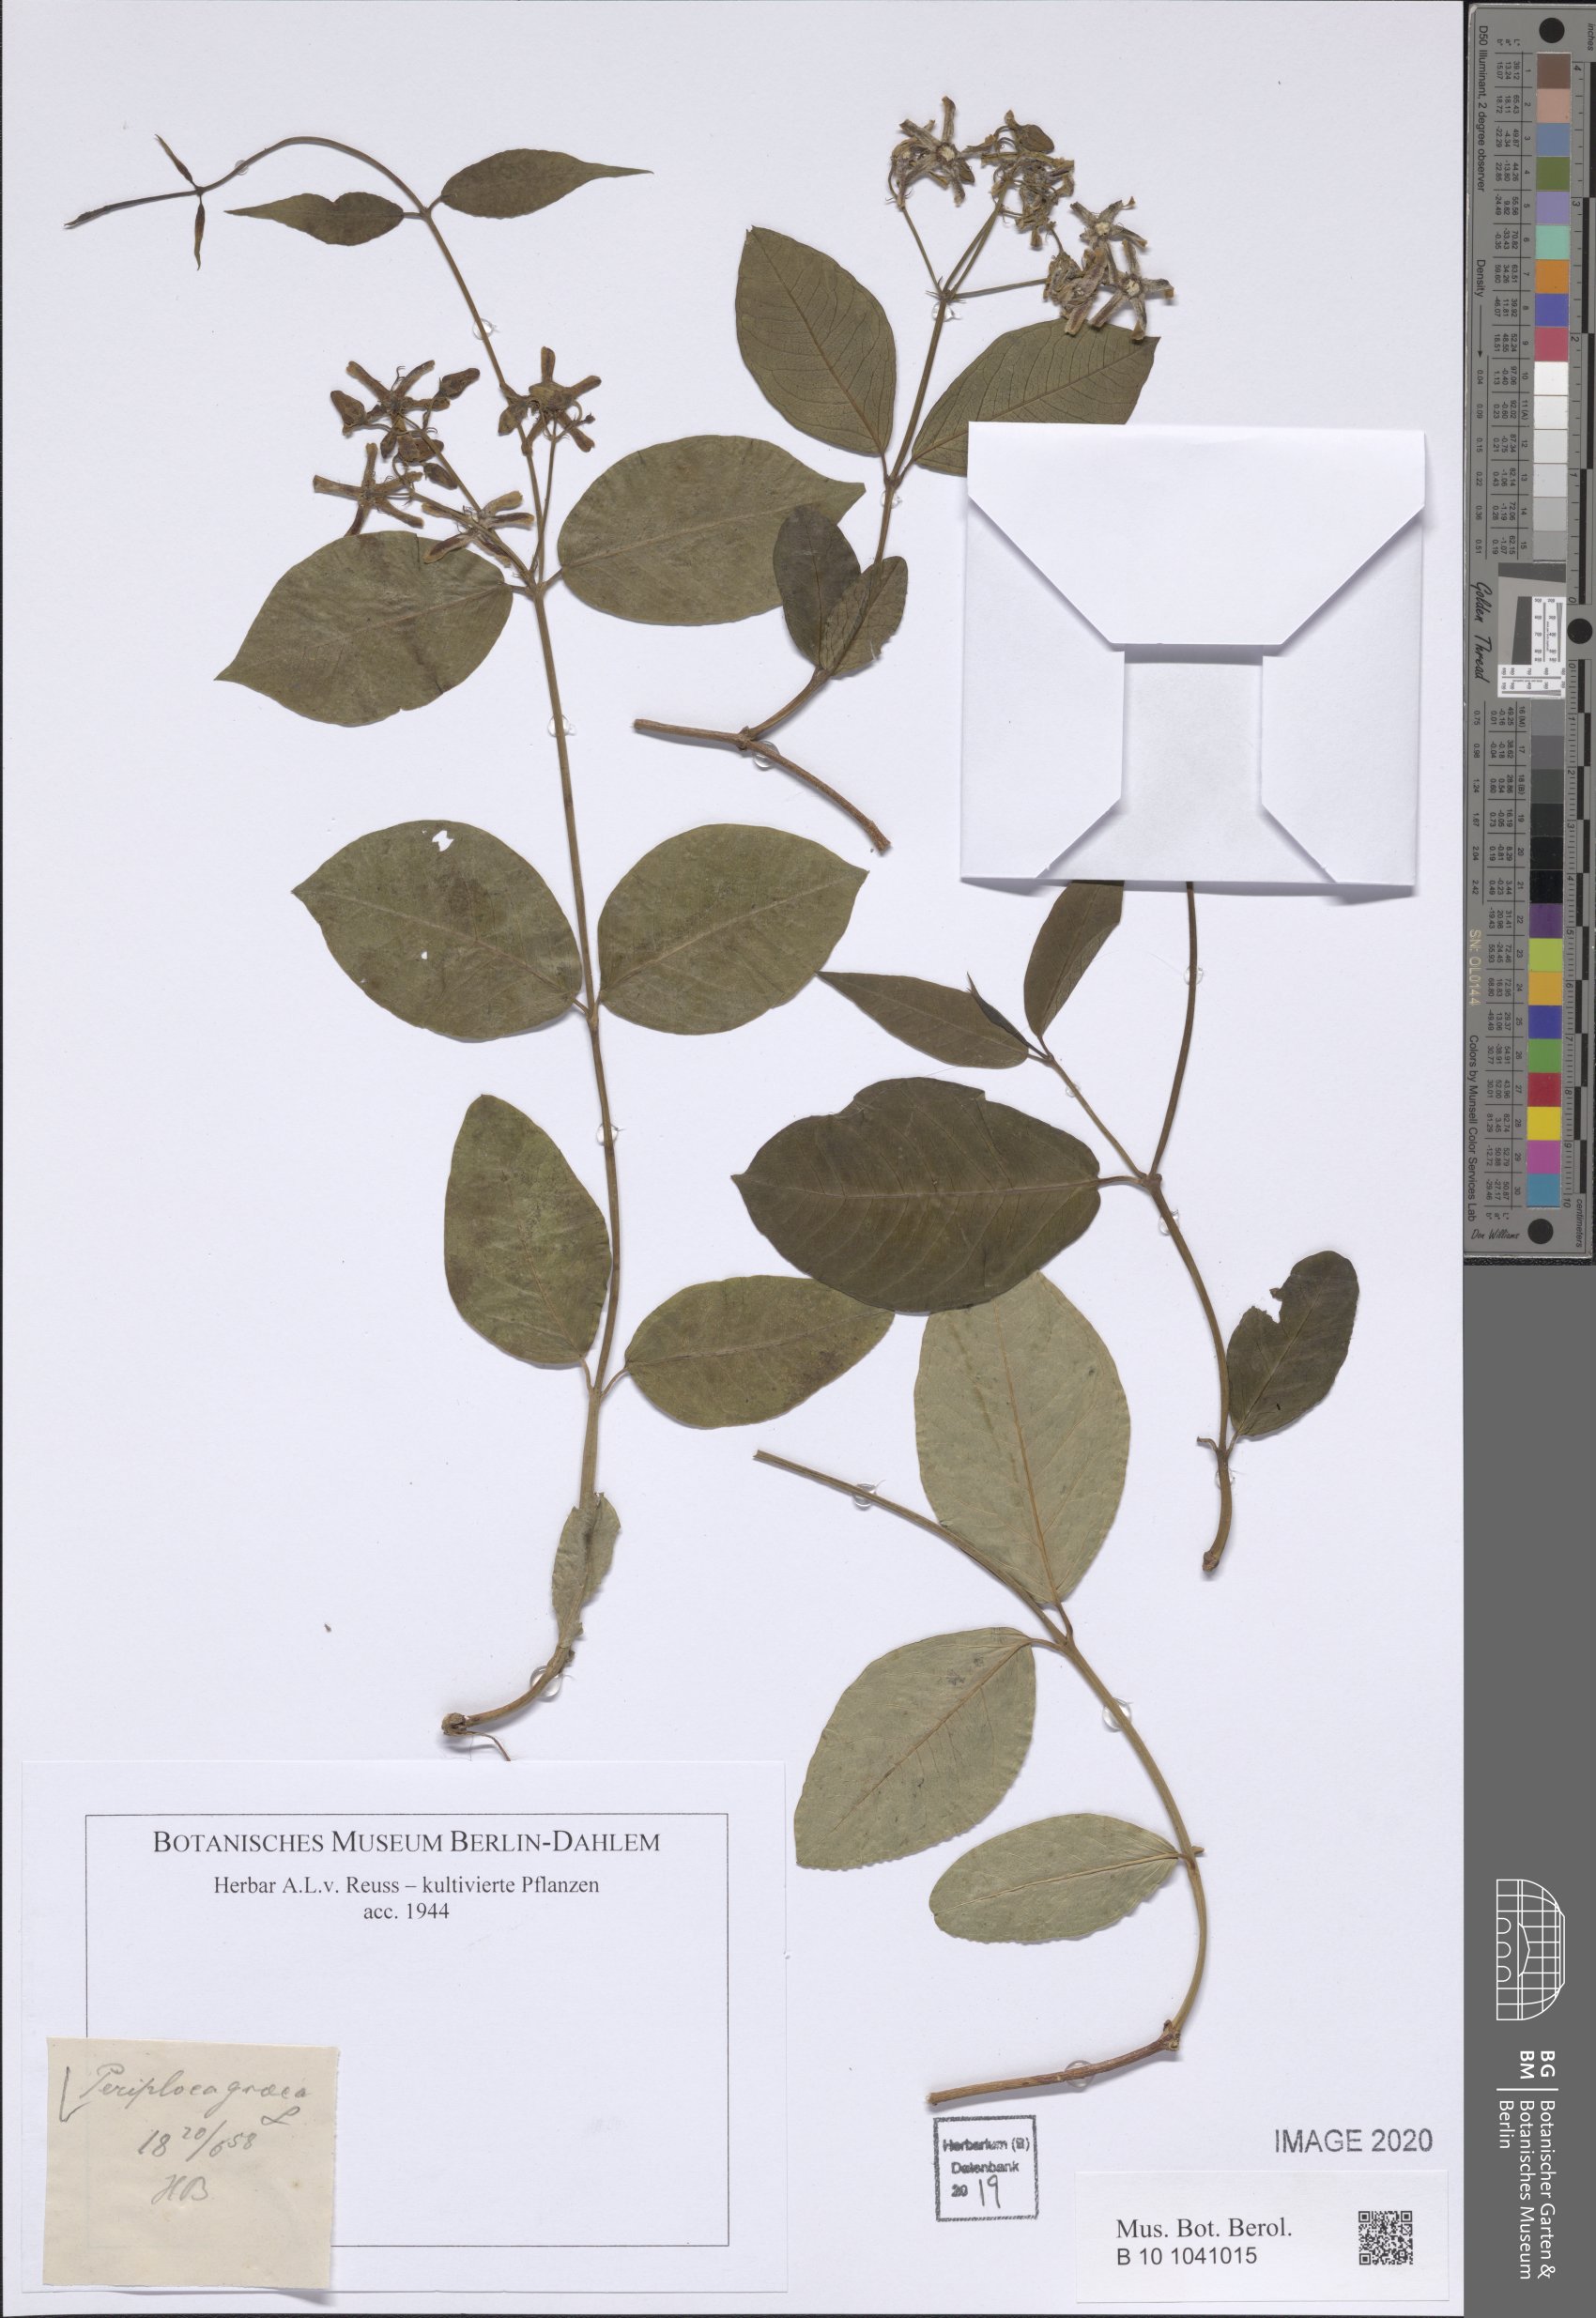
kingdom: Plantae
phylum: Tracheophyta
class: Magnoliopsida
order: Gentianales
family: Apocynaceae
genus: Periploca
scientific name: Periploca graeca
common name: Silkvine
